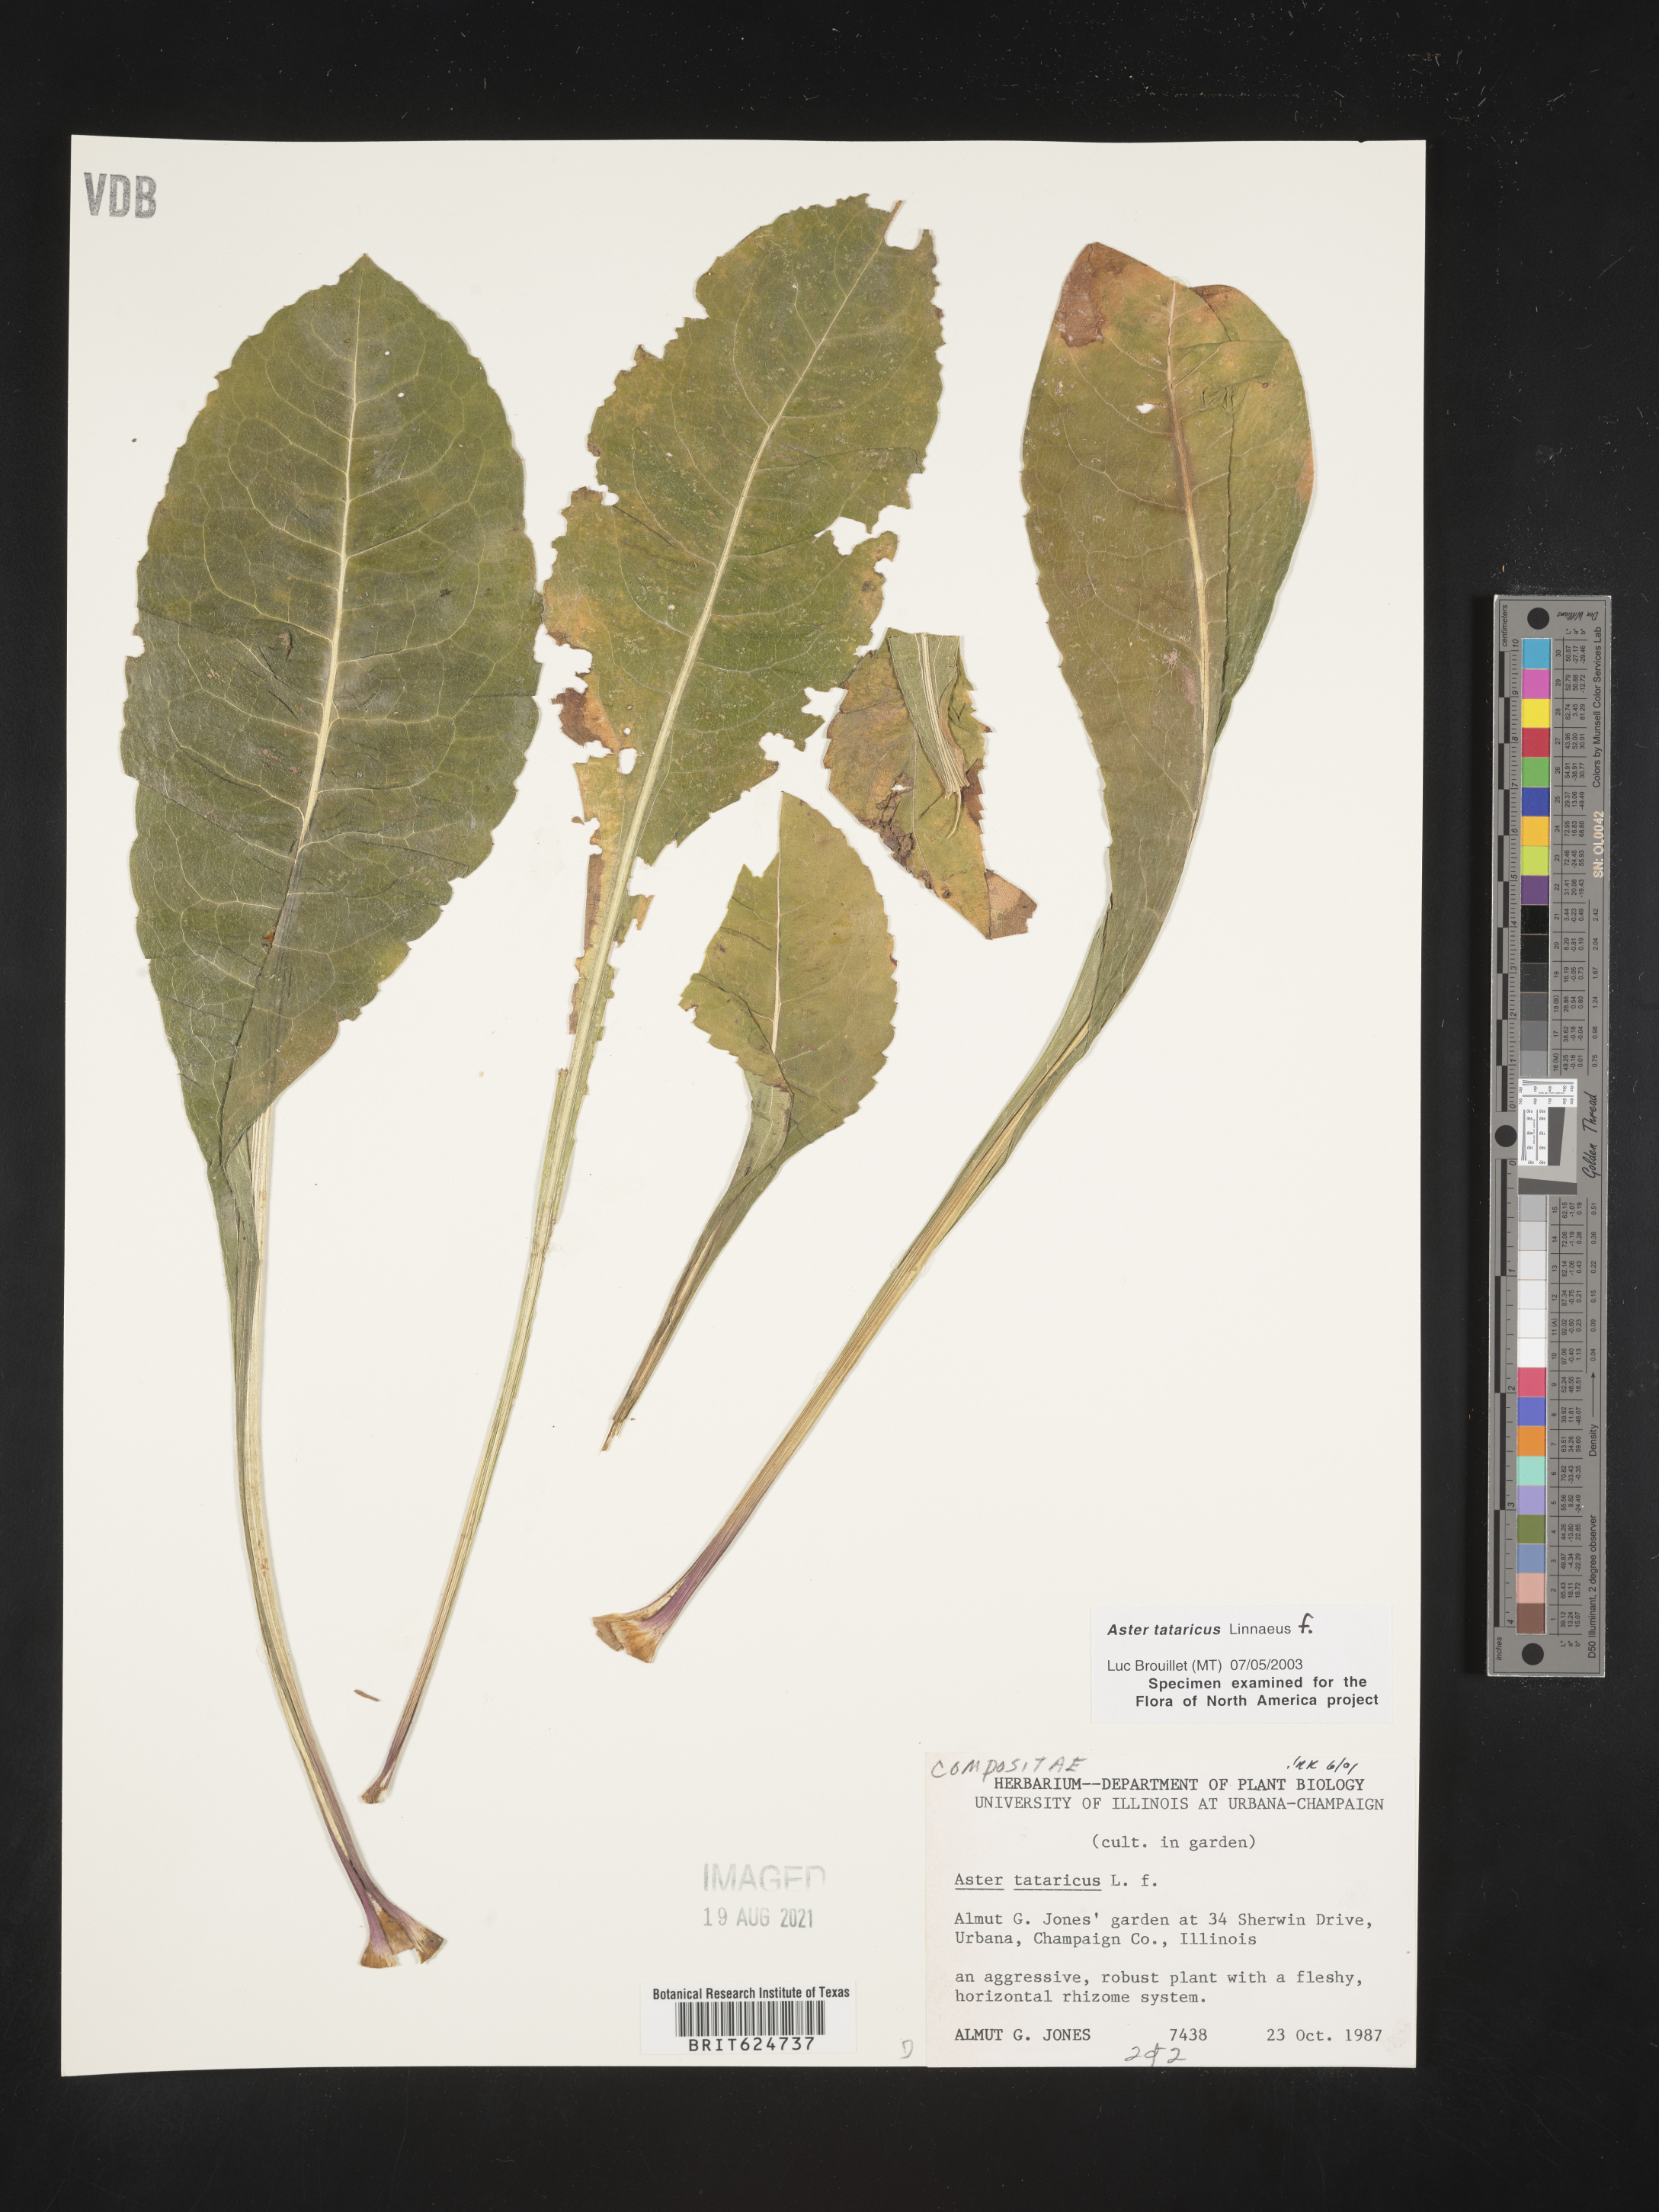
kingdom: Plantae
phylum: Tracheophyta
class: Magnoliopsida
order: Asterales
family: Asteraceae
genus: Aster
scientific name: Aster tataricus
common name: Tatarian aster
